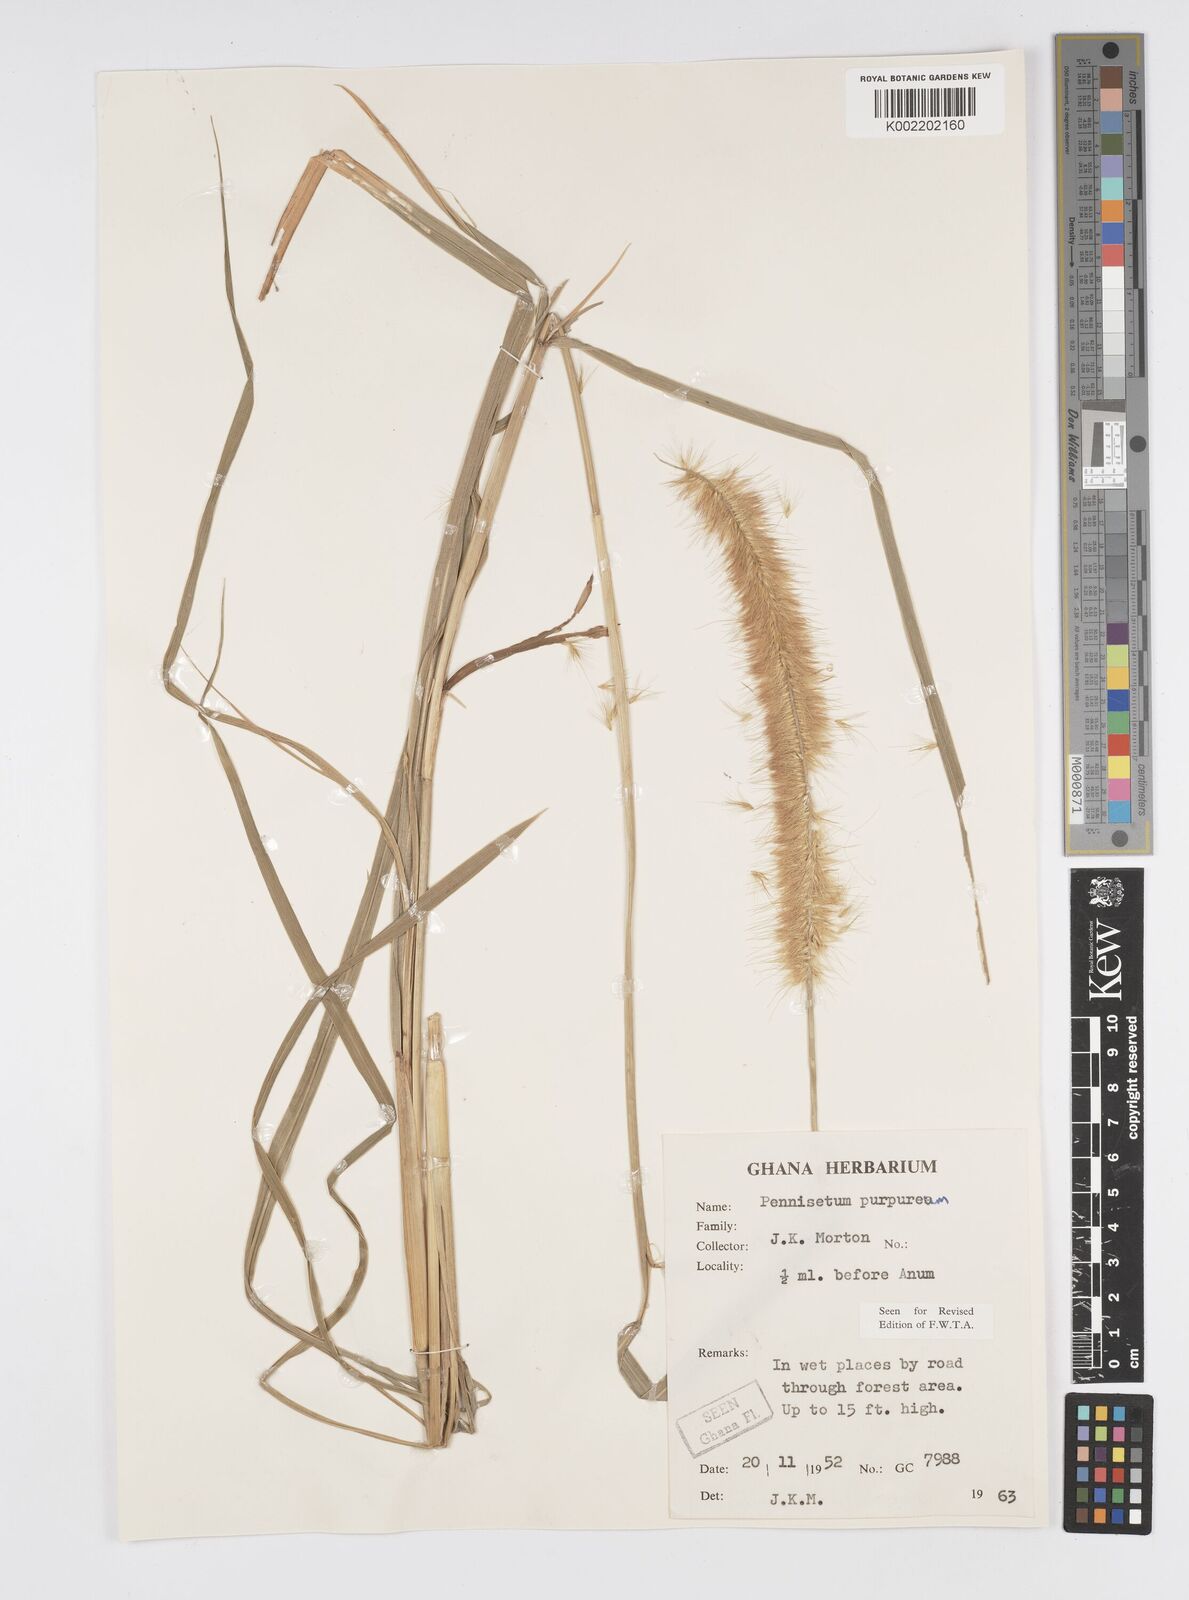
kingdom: Plantae
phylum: Tracheophyta
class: Liliopsida
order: Poales
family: Poaceae
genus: Cenchrus
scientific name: Cenchrus purpureus
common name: Elephant grass
